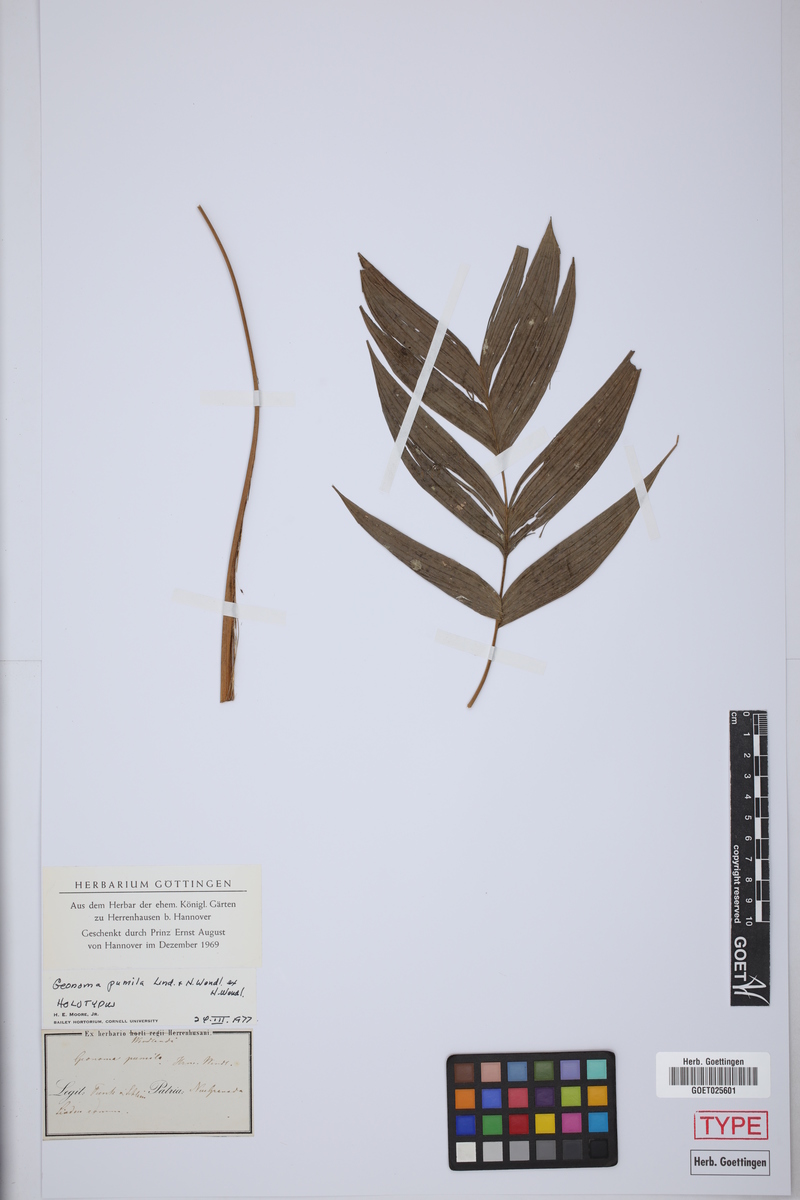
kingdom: Plantae
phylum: Tracheophyta
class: Liliopsida
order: Arecales
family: Arecaceae
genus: Geonoma
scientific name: Geonoma orbignyana
